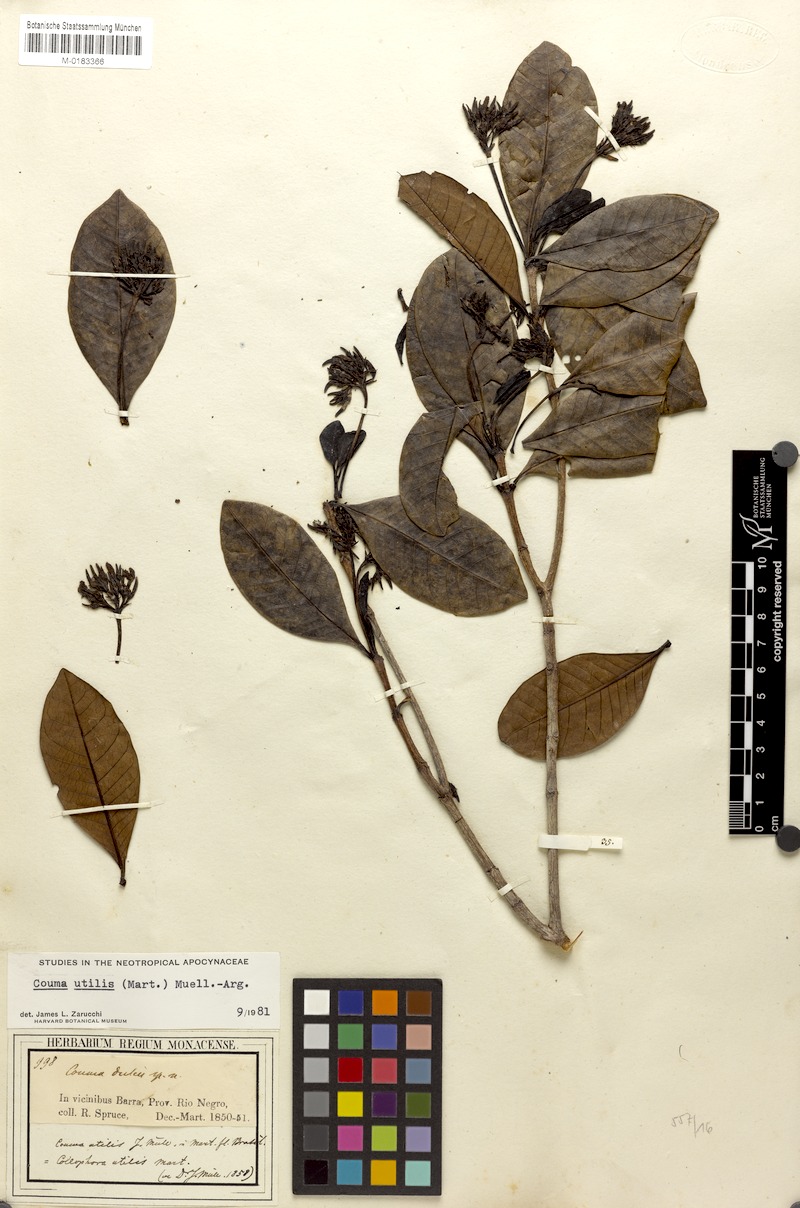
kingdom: Plantae
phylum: Tracheophyta
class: Magnoliopsida
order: Gentianales
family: Apocynaceae
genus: Couma
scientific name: Couma utilis
